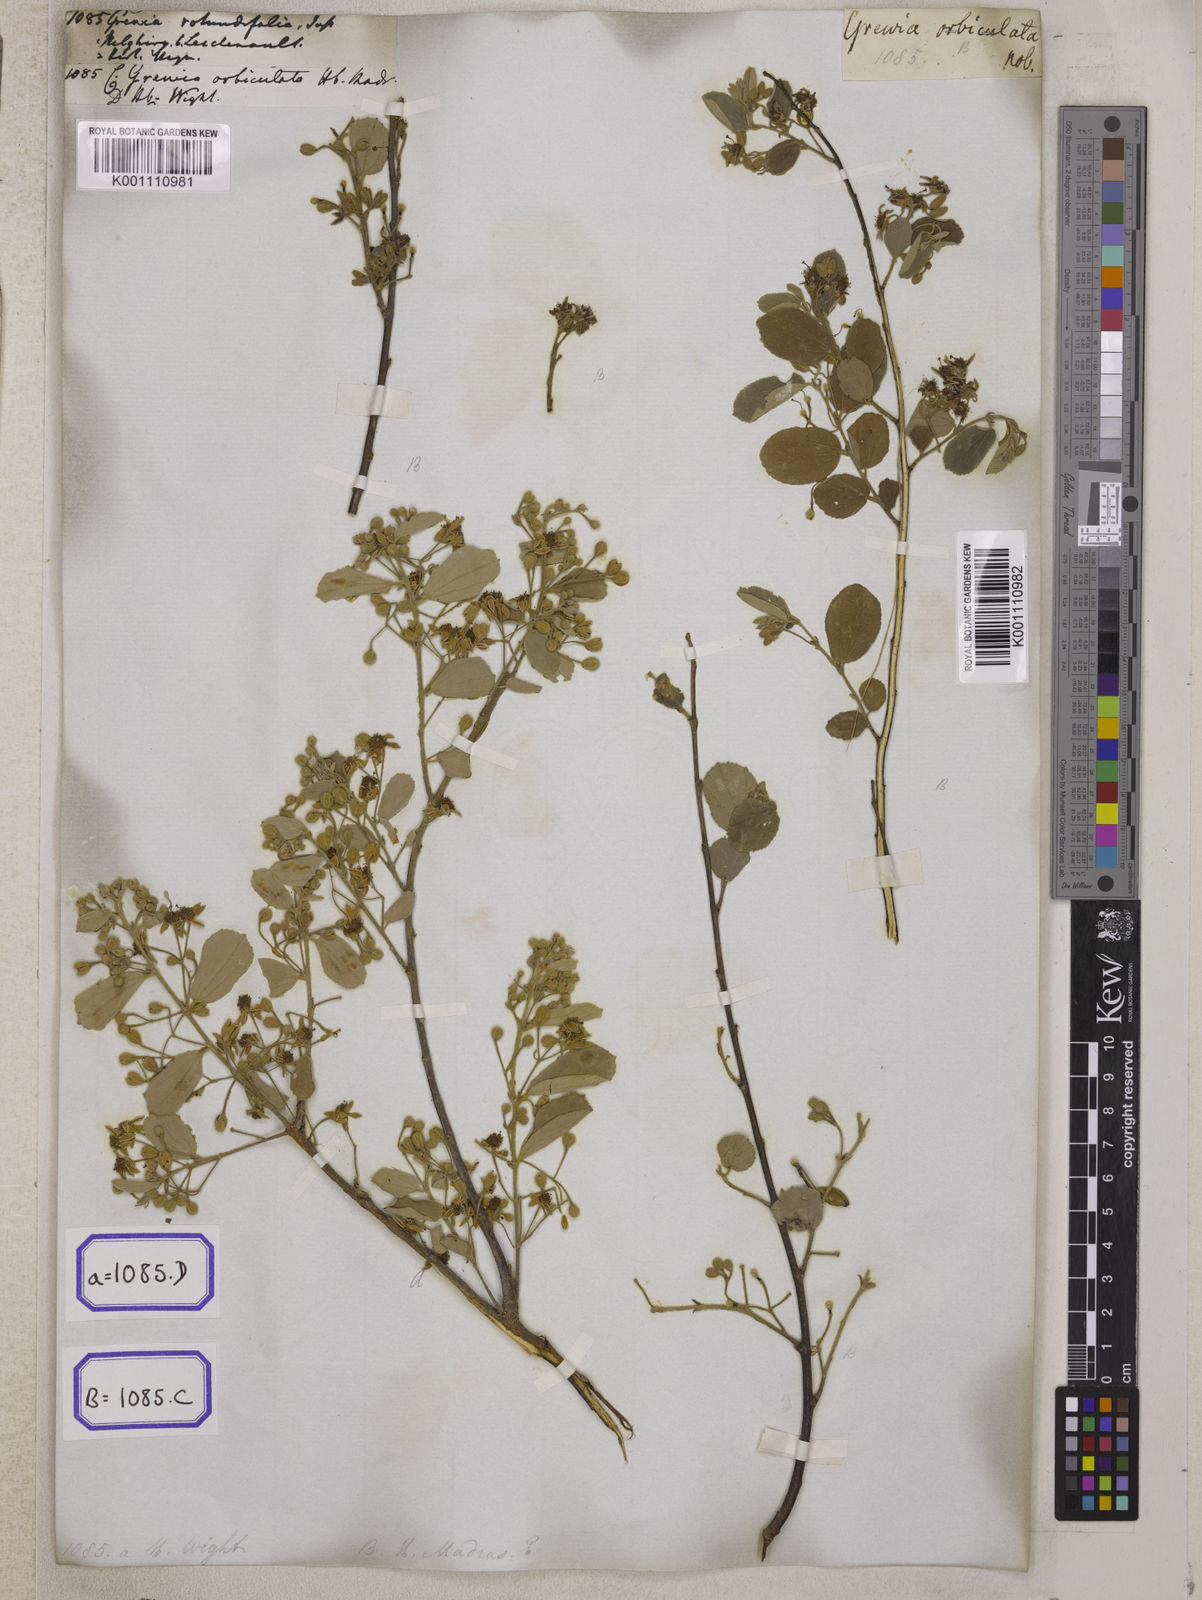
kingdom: Plantae
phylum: Tracheophyta
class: Magnoliopsida
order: Malvales
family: Malvaceae
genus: Grewia
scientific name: Grewia orbiculata
